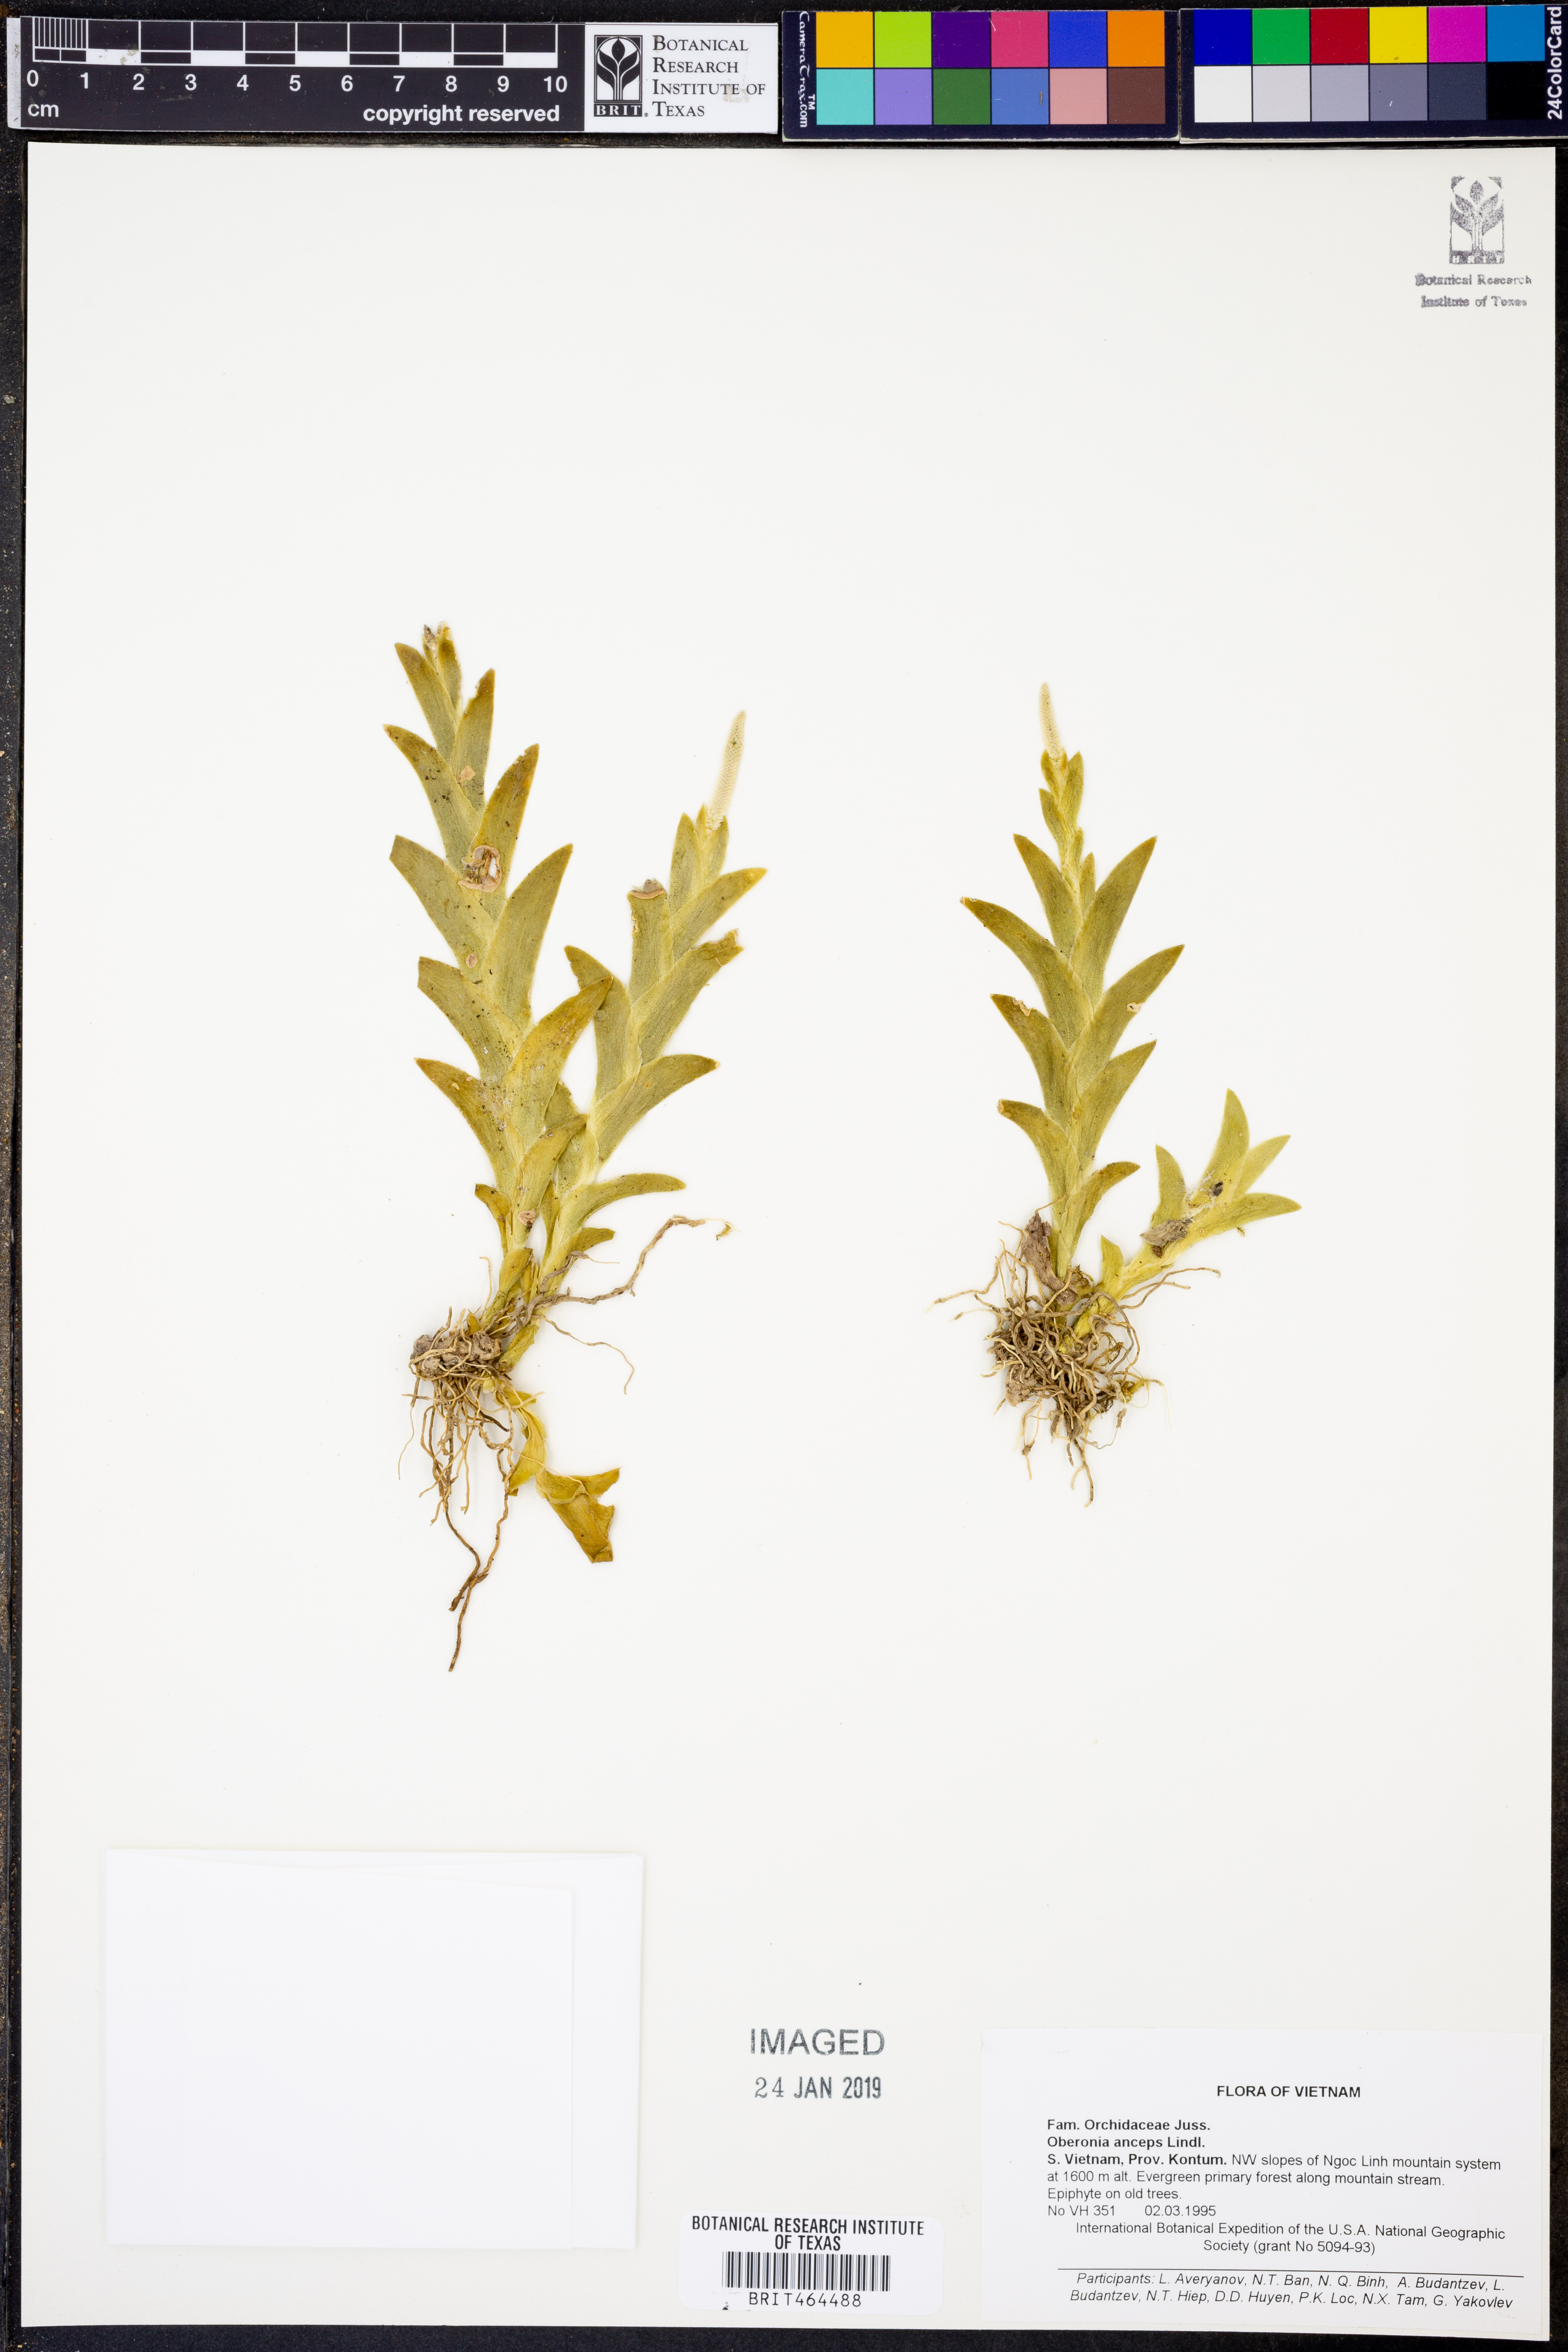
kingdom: Plantae
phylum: Tracheophyta
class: Liliopsida
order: Asparagales
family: Orchidaceae
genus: Oberonia
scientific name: Oberonia lycopodioides
